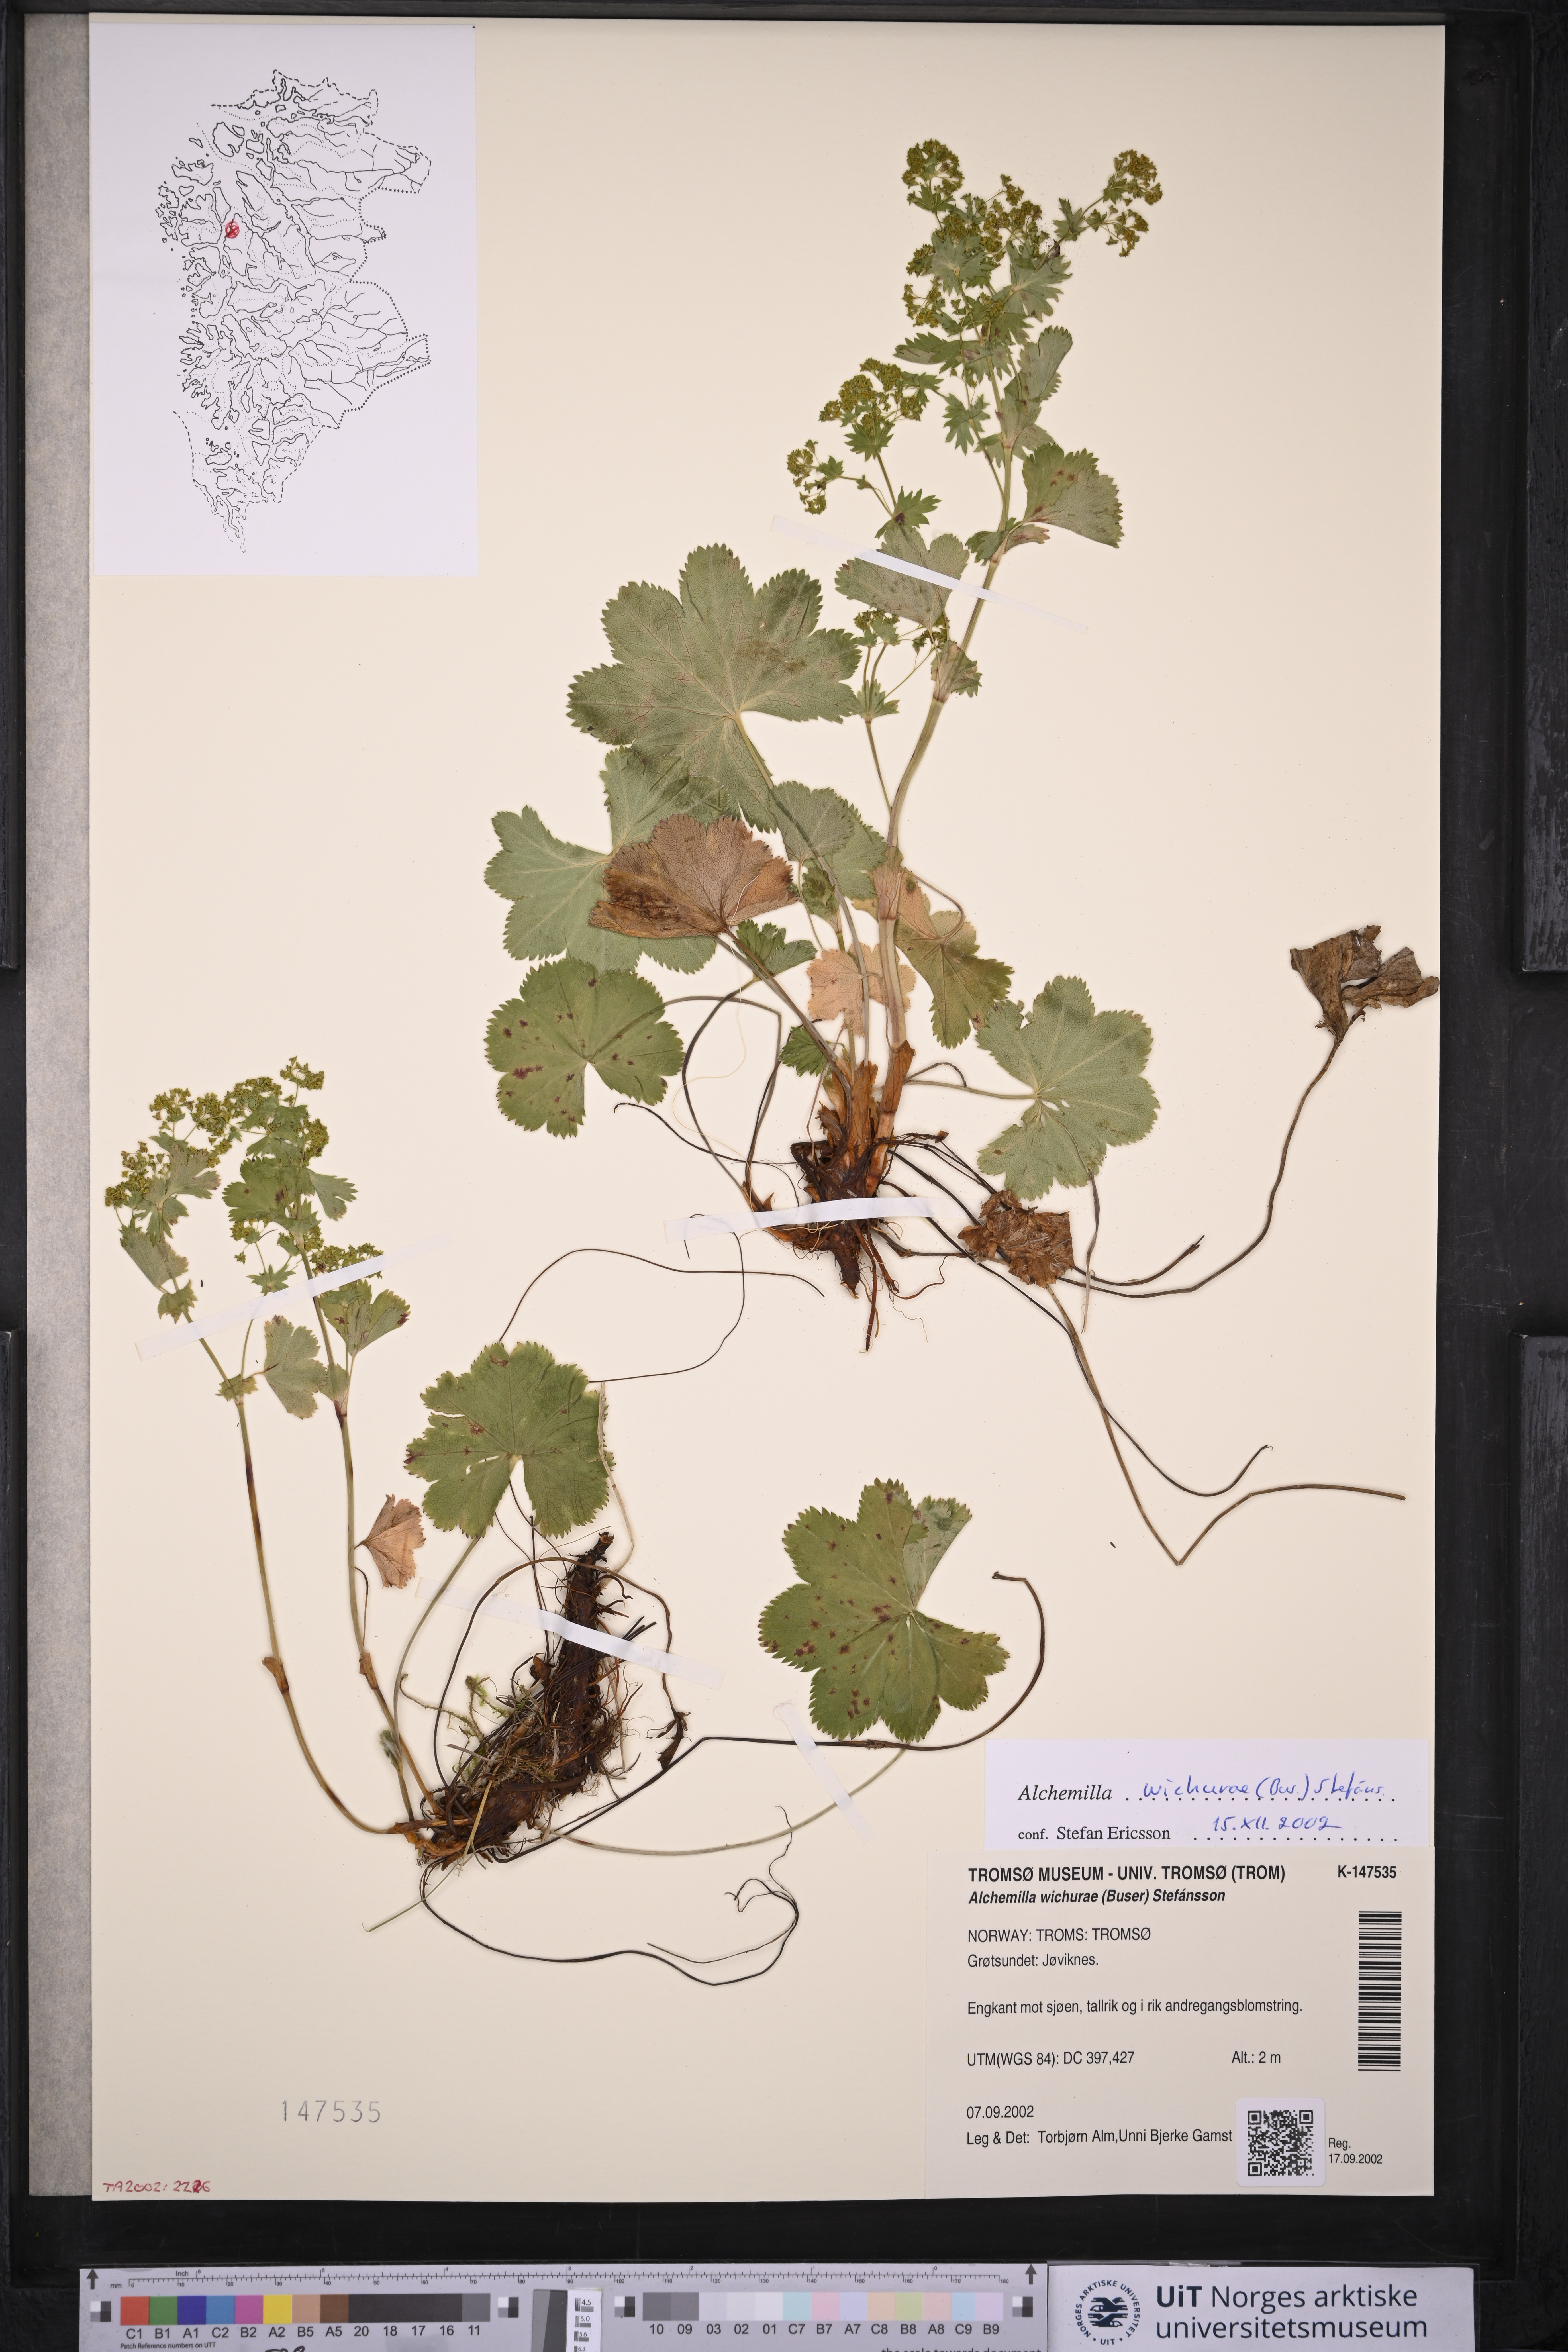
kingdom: Plantae
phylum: Tracheophyta
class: Magnoliopsida
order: Rosales
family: Rosaceae
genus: Alchemilla
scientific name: Alchemilla wichurae
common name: Rock lady's mantle
